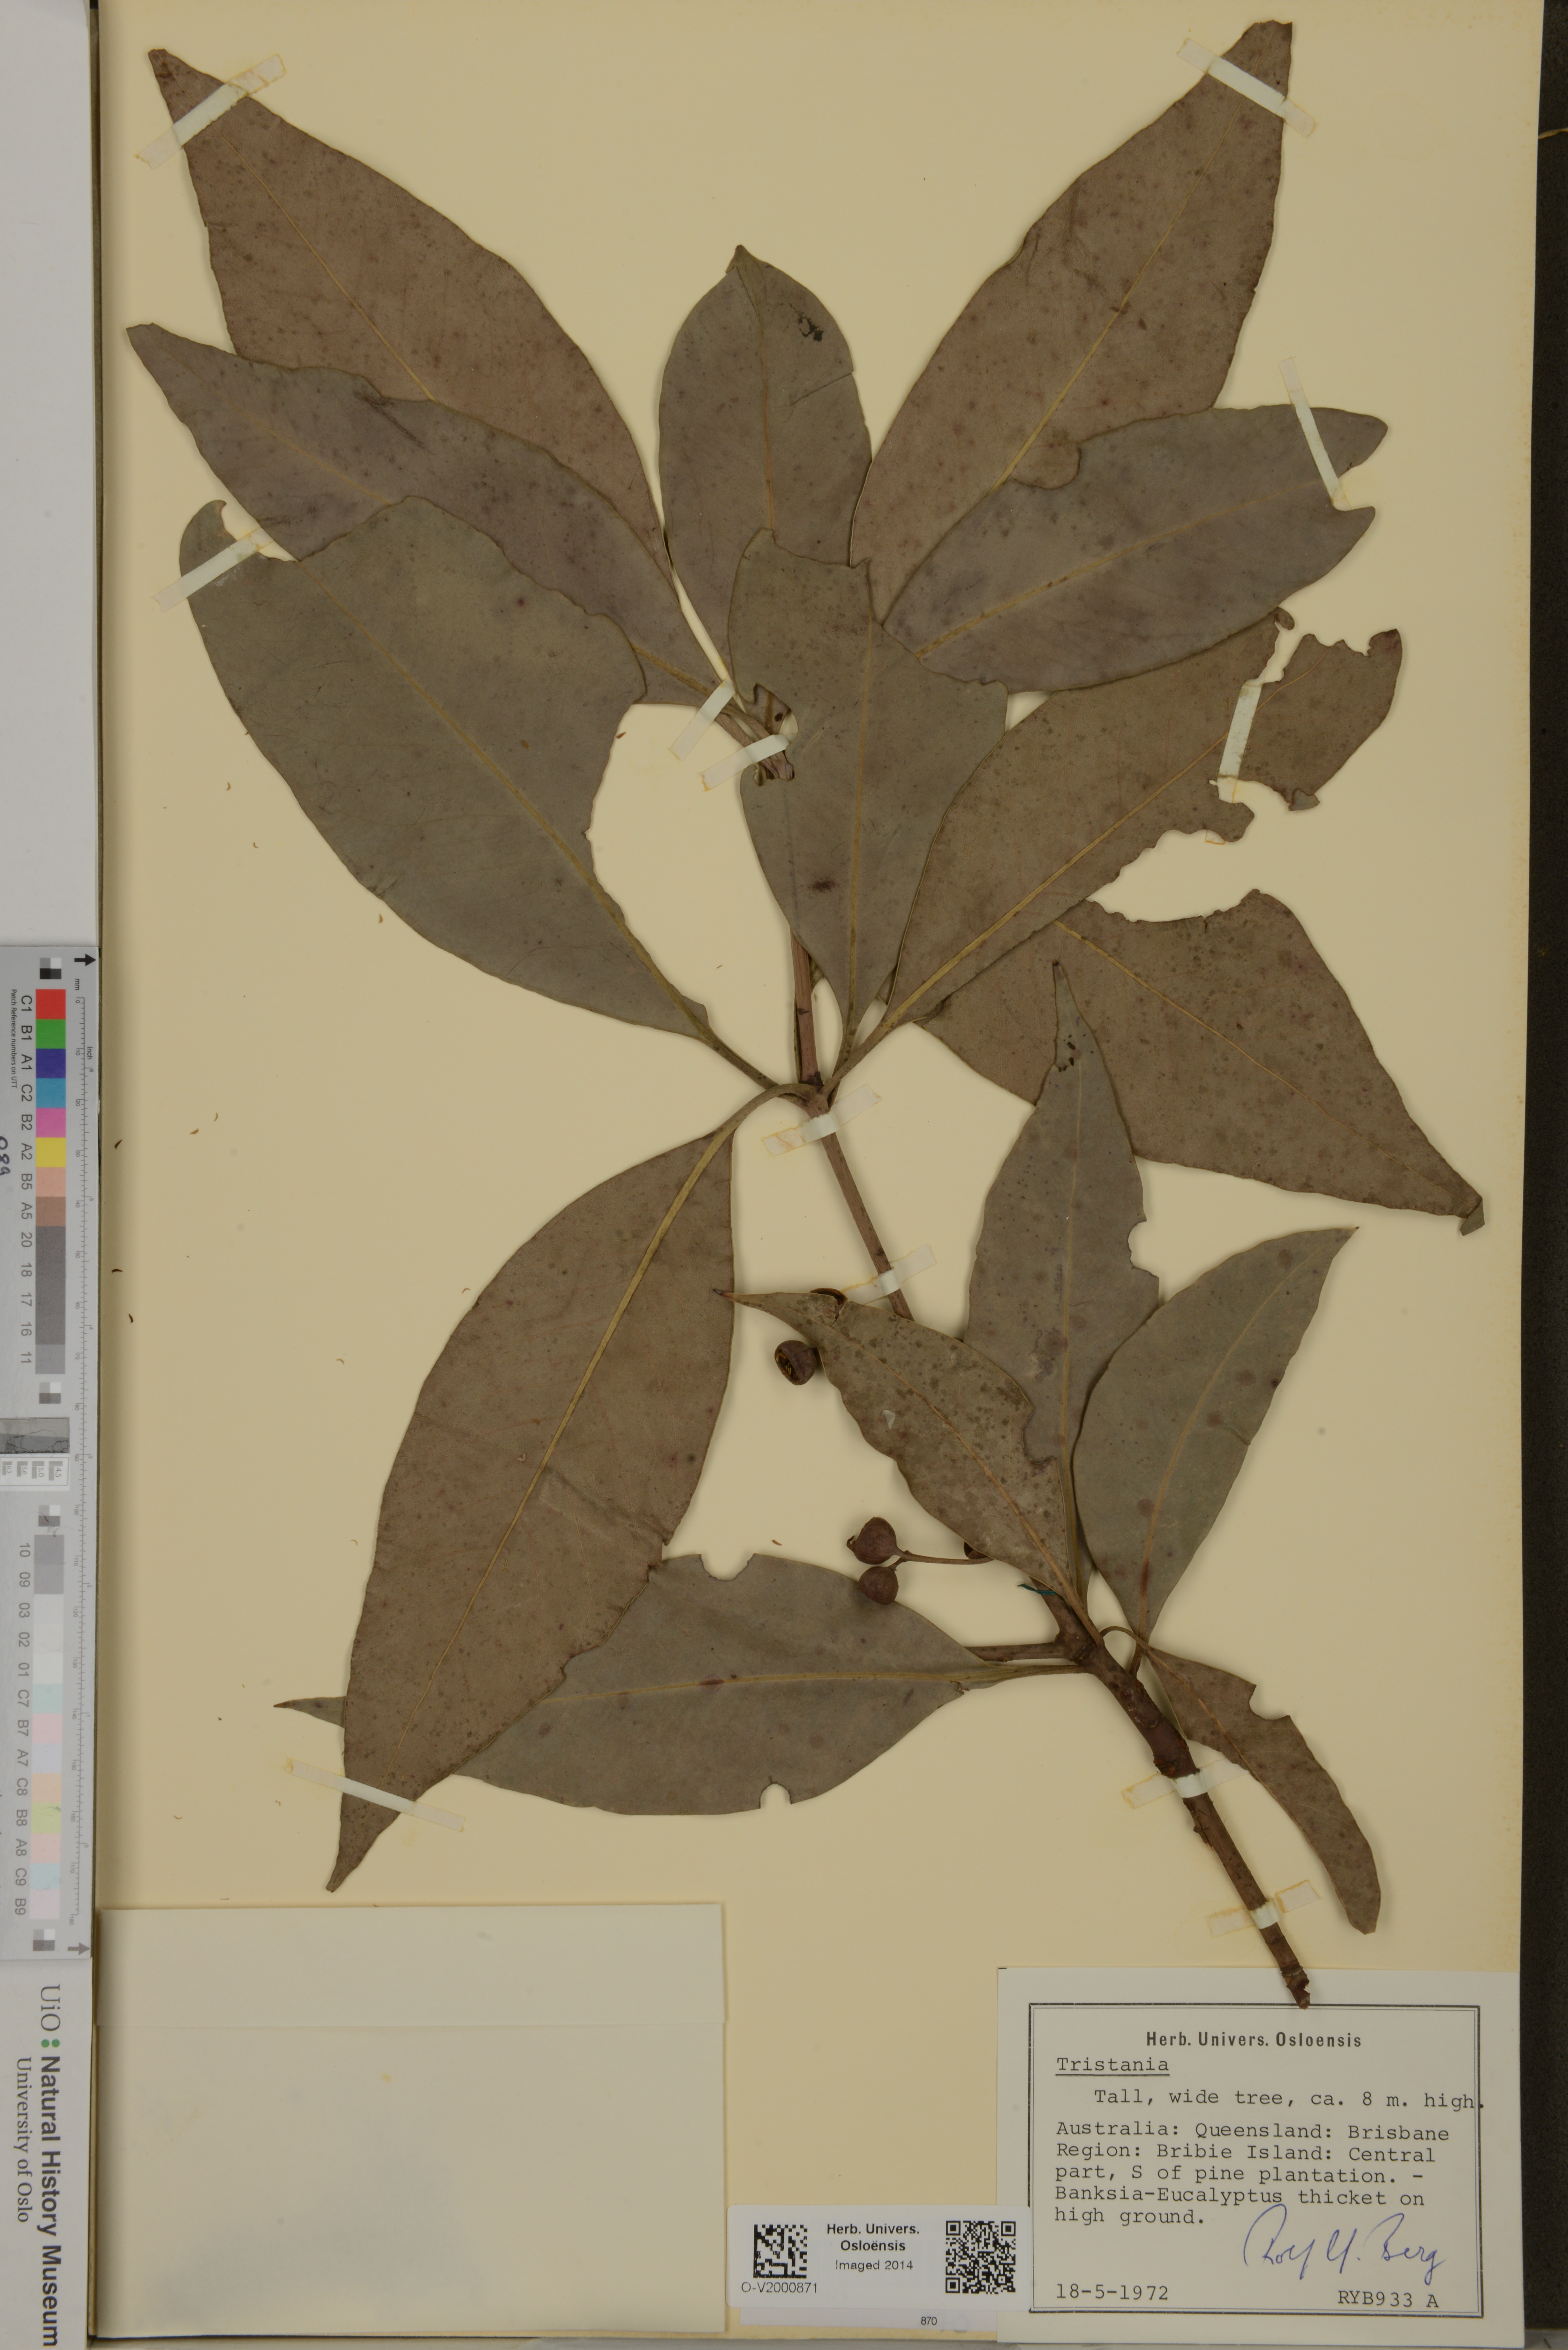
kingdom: Plantae
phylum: Tracheophyta
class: Magnoliopsida
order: Myrtales
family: Myrtaceae
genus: Tristania
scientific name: Tristania
